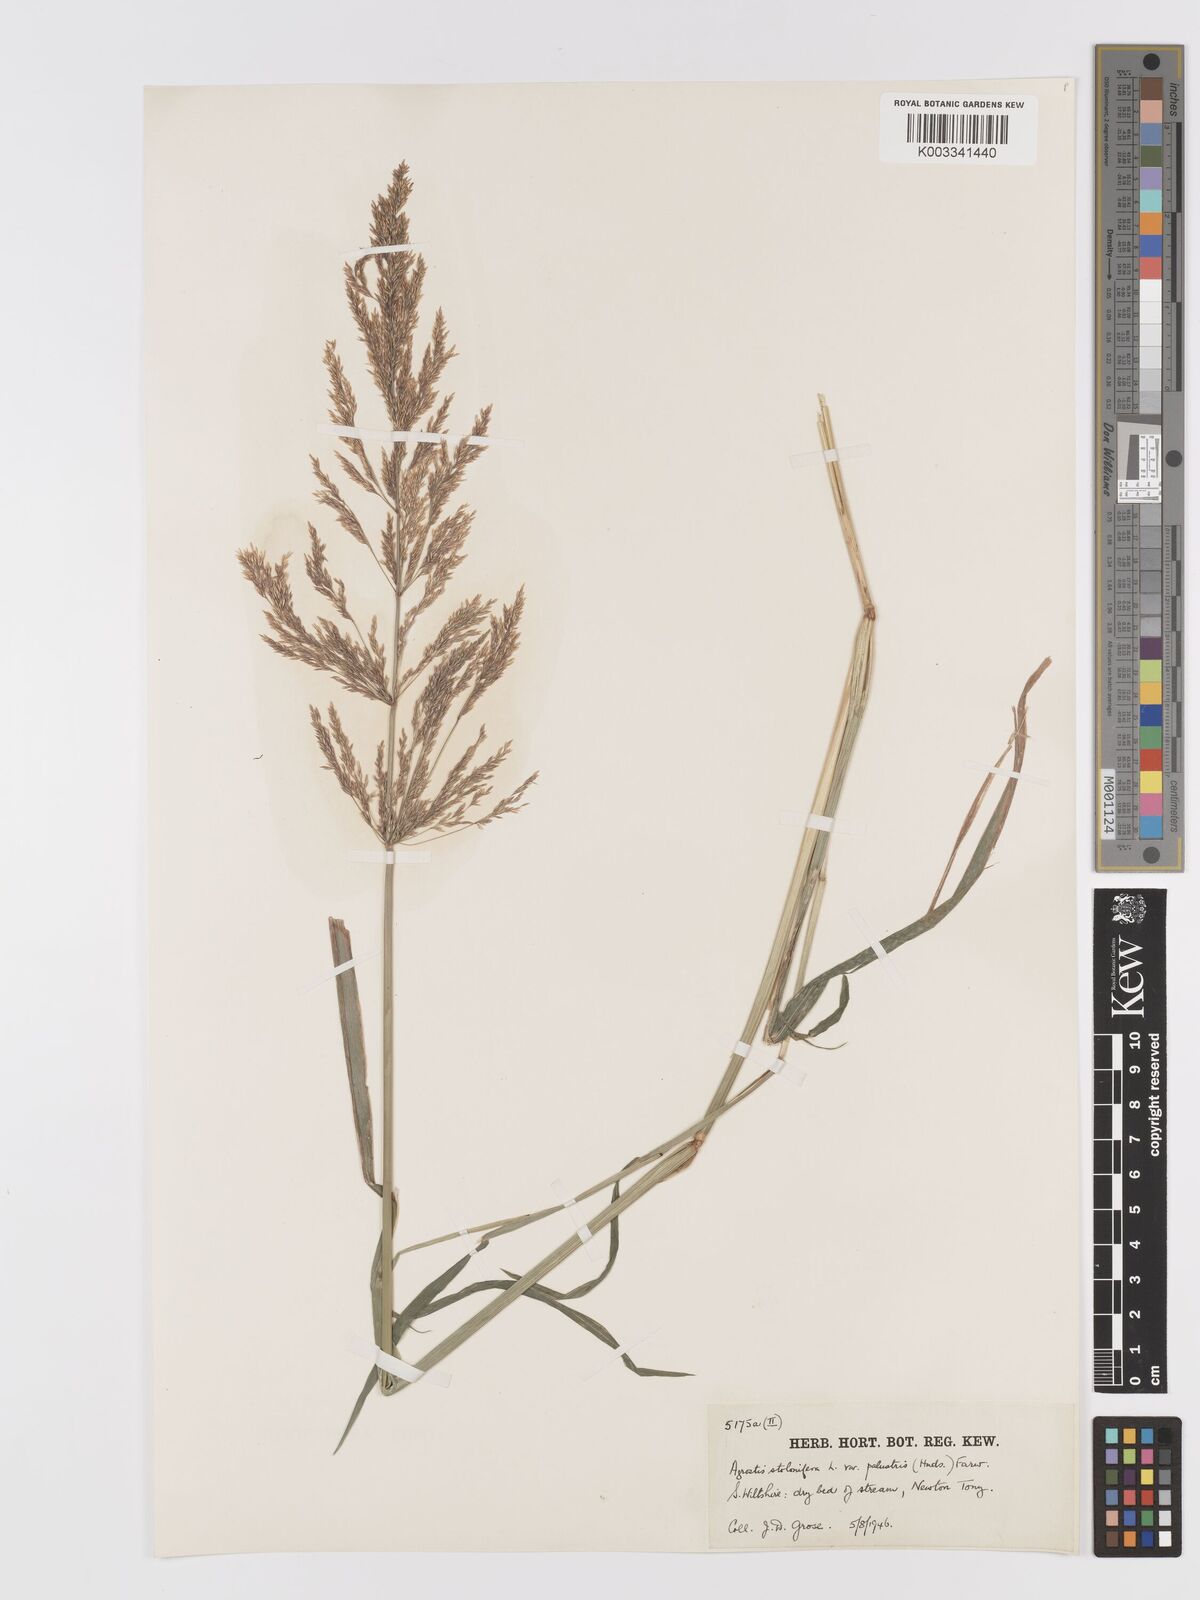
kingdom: Plantae
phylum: Tracheophyta
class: Liliopsida
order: Poales
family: Poaceae
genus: Agrostis
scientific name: Agrostis stolonifera
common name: Creeping bentgrass
